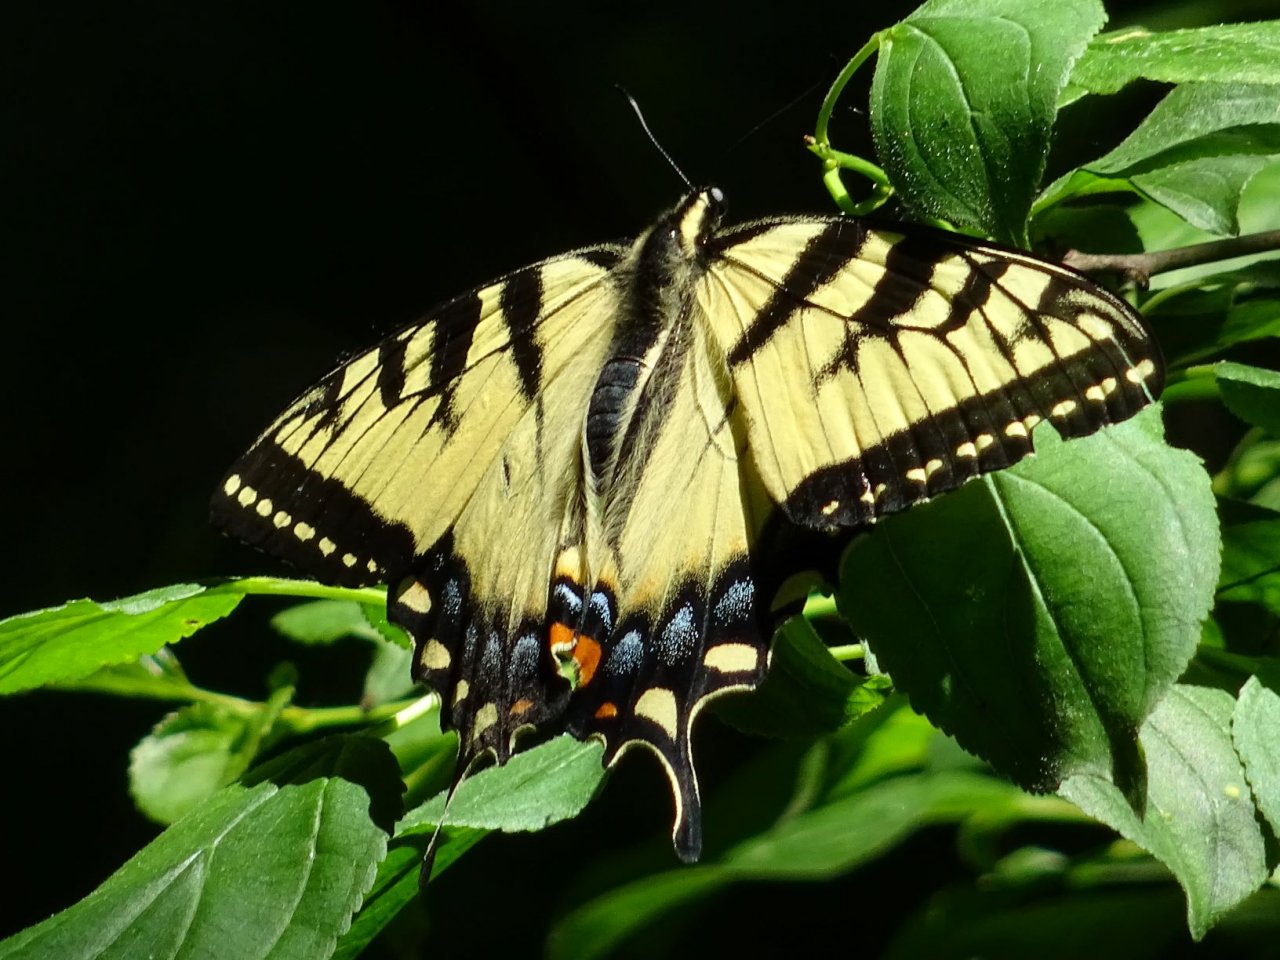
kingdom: Animalia
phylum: Arthropoda
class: Insecta
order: Lepidoptera
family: Papilionidae
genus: Pterourus
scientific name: Pterourus glaucus
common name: Eastern Tiger Swallowtail
